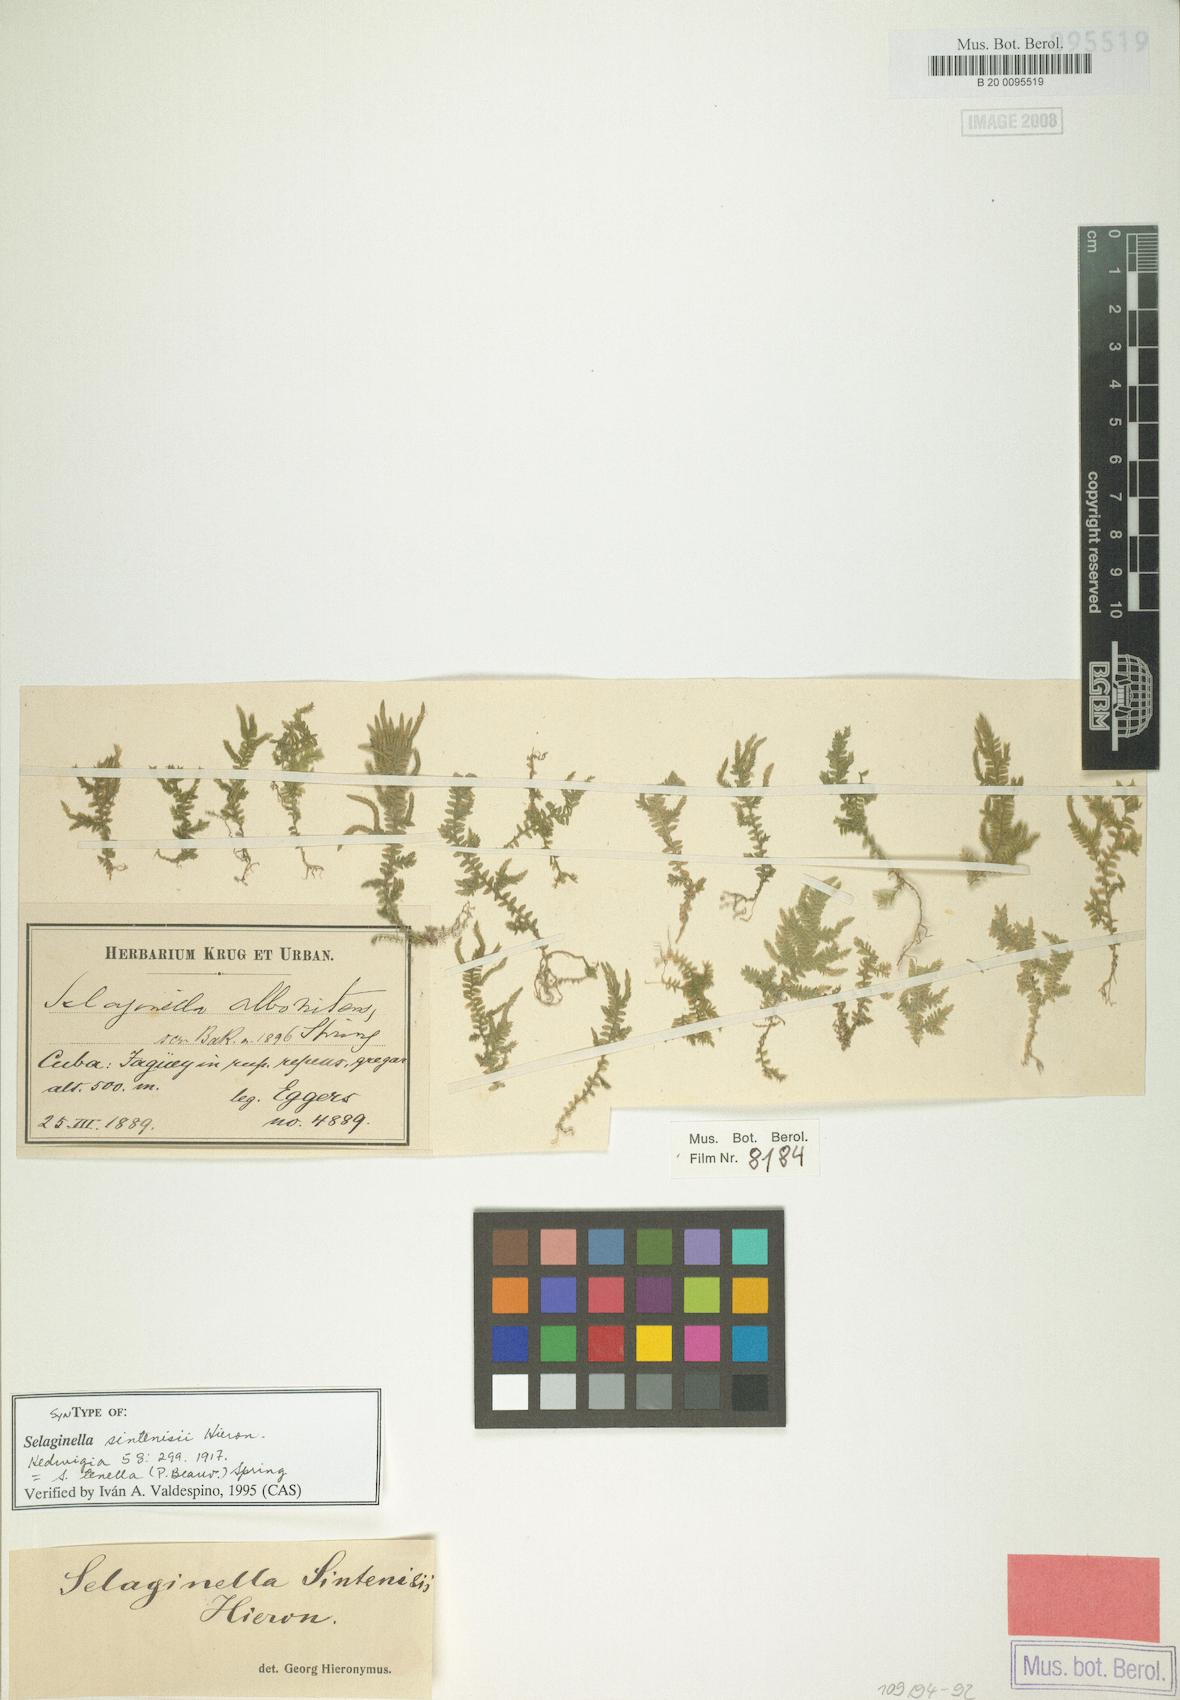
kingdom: Plantae
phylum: Tracheophyta
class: Lycopodiopsida
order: Selaginellales
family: Selaginellaceae
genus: Selaginella
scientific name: Selaginella tenella
